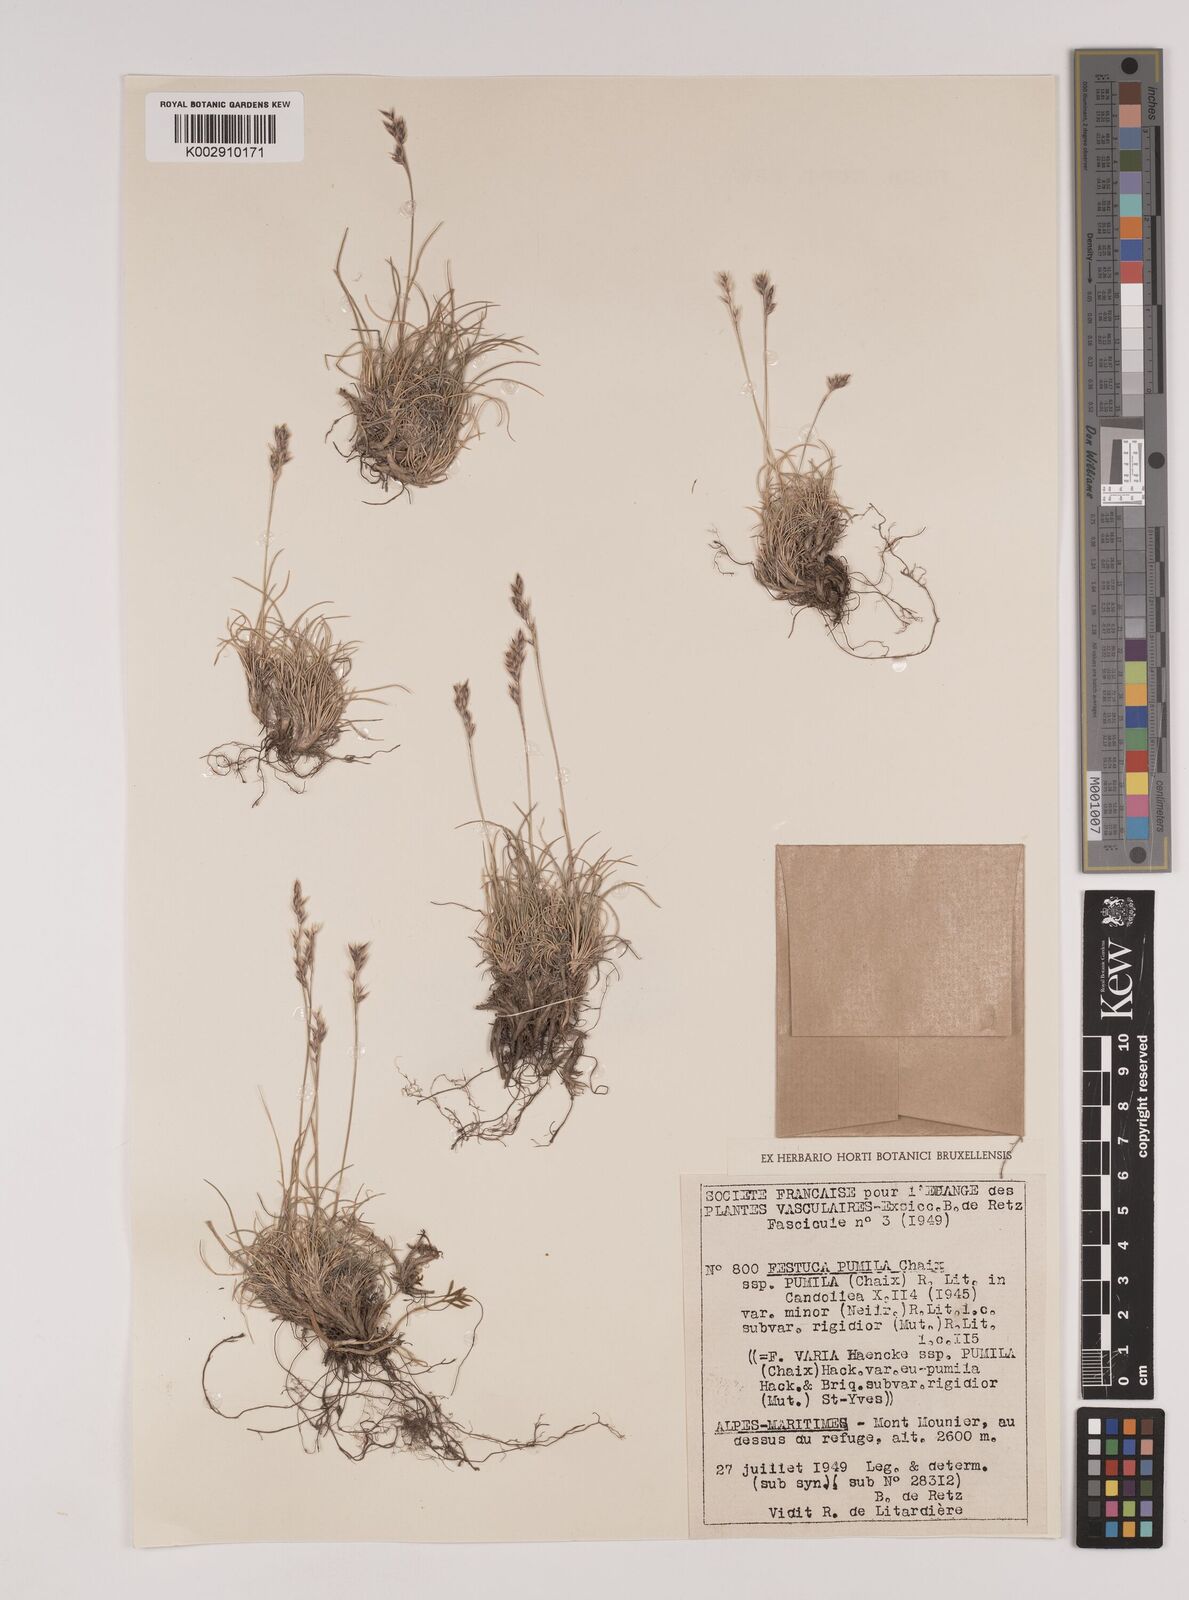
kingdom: Plantae
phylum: Tracheophyta
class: Liliopsida
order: Poales
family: Poaceae
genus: Festuca
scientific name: Festuca
